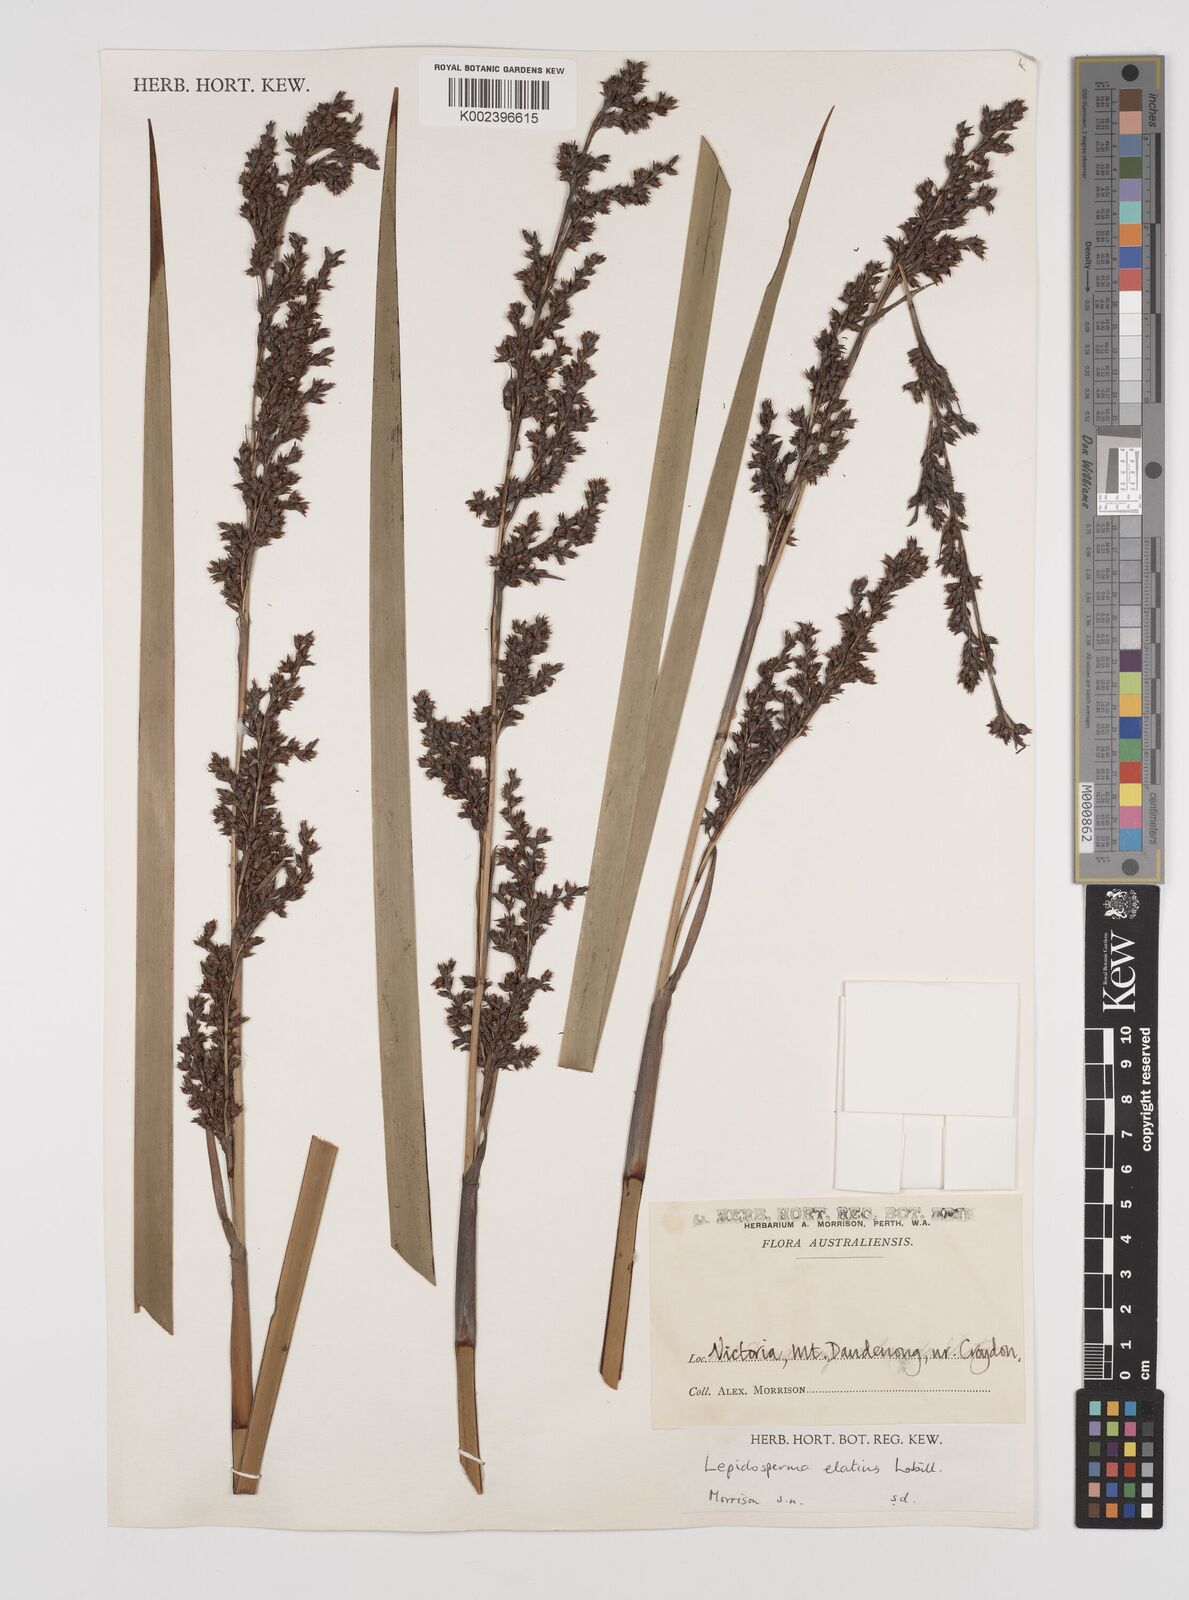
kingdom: Plantae
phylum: Tracheophyta
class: Liliopsida
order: Poales
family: Cyperaceae
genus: Lepidosperma
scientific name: Lepidosperma elatius
